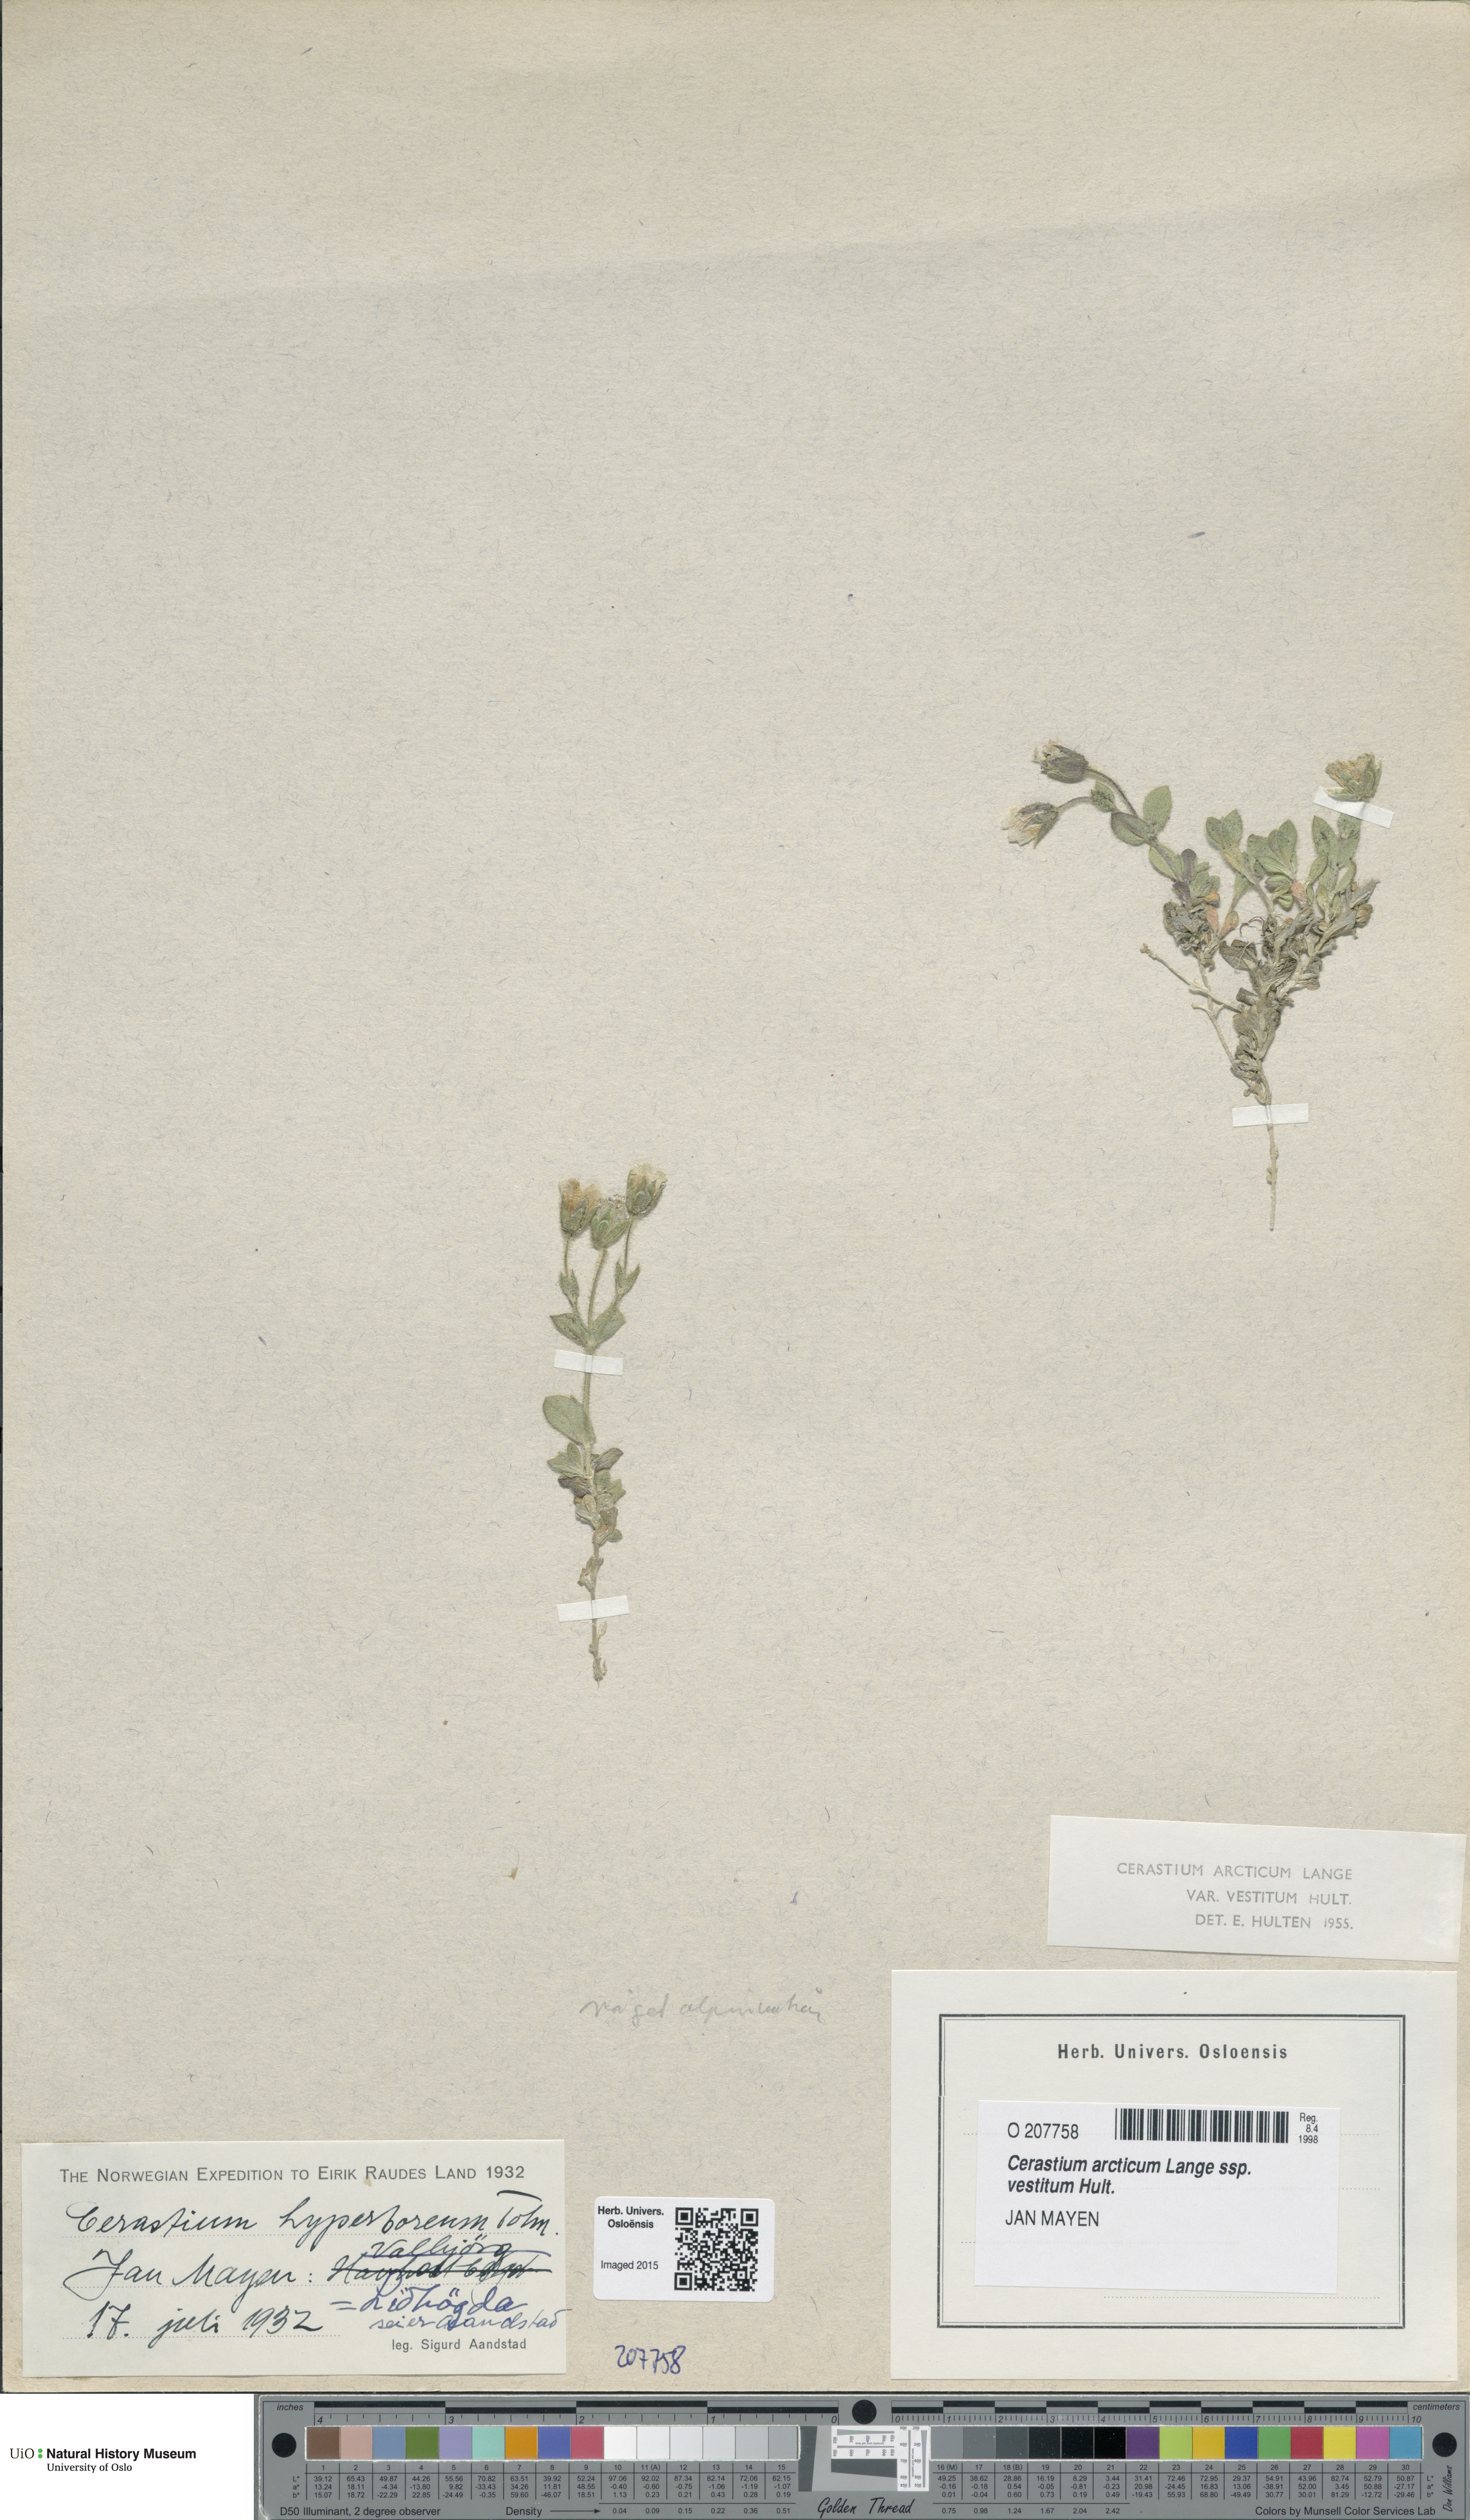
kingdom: Plantae
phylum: Tracheophyta
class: Magnoliopsida
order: Caryophyllales
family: Caryophyllaceae
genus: Cerastium
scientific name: Cerastium arcticum
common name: Arctic mouse-ear
